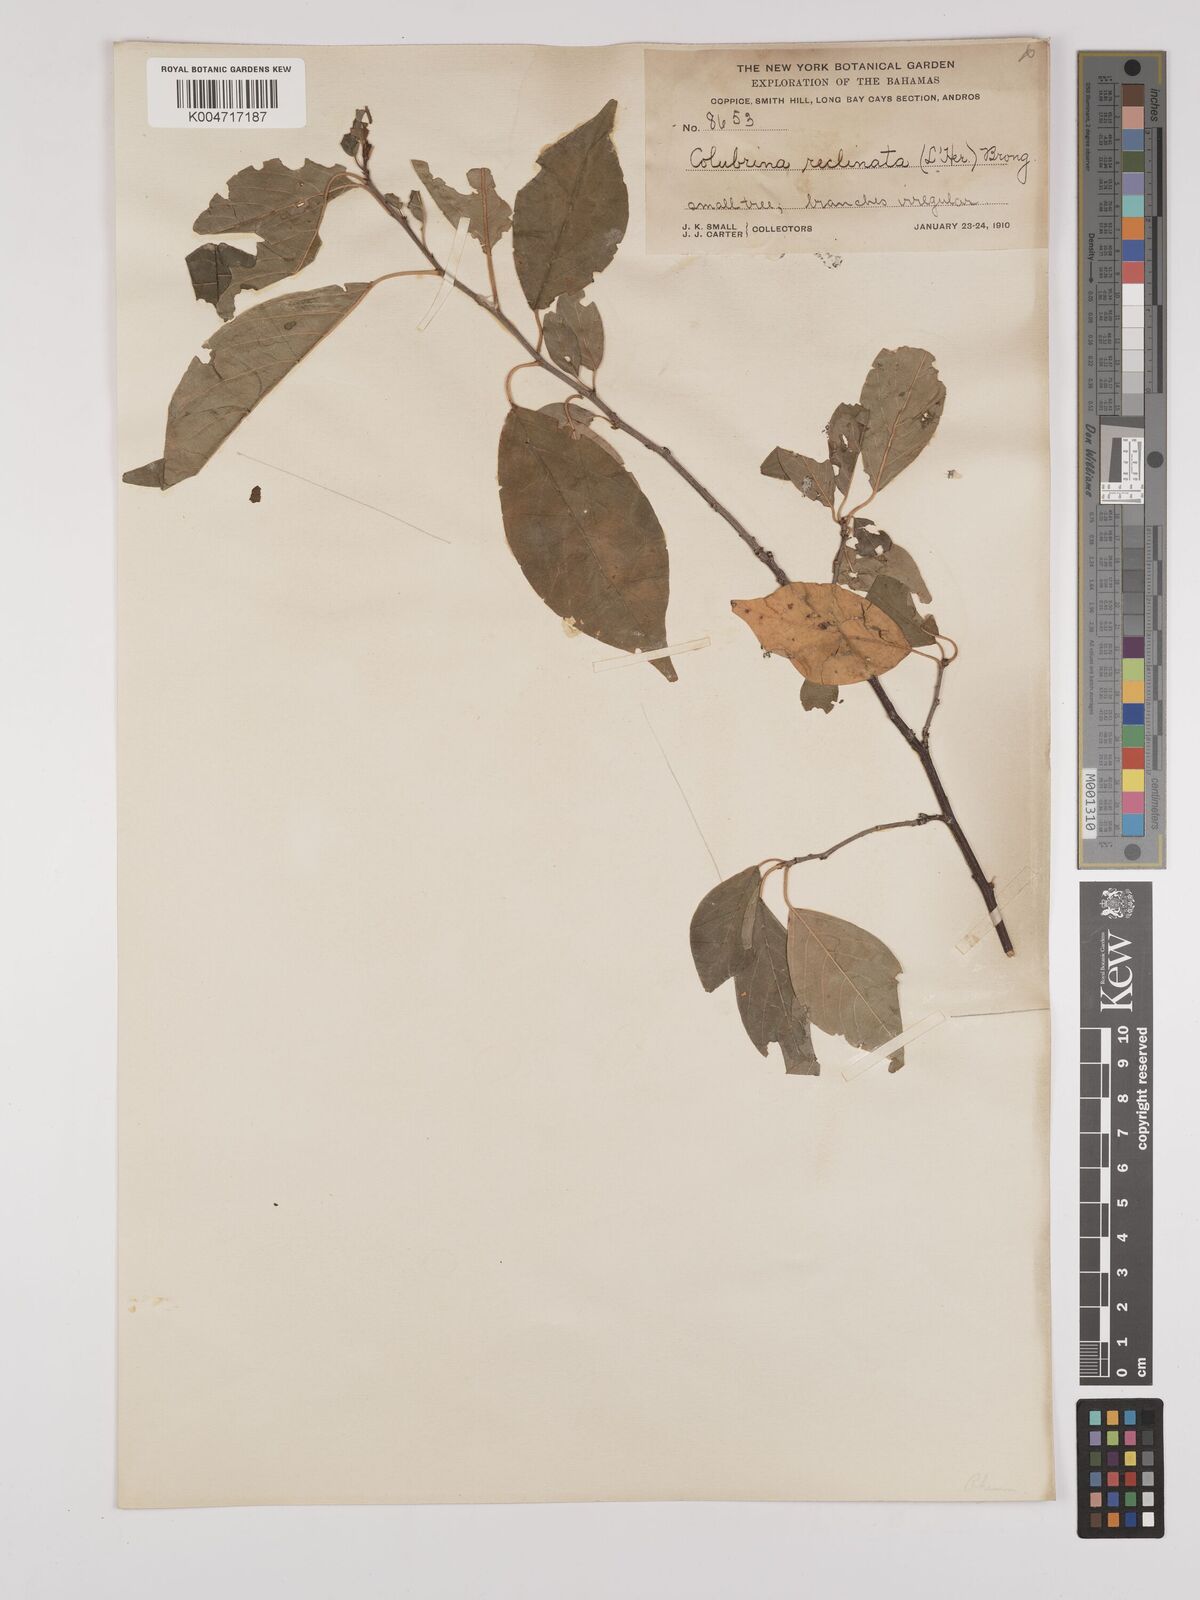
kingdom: Plantae
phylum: Tracheophyta
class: Magnoliopsida
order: Rosales
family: Rhamnaceae
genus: Colubrina
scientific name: Colubrina elliptica
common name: Soldierwood
